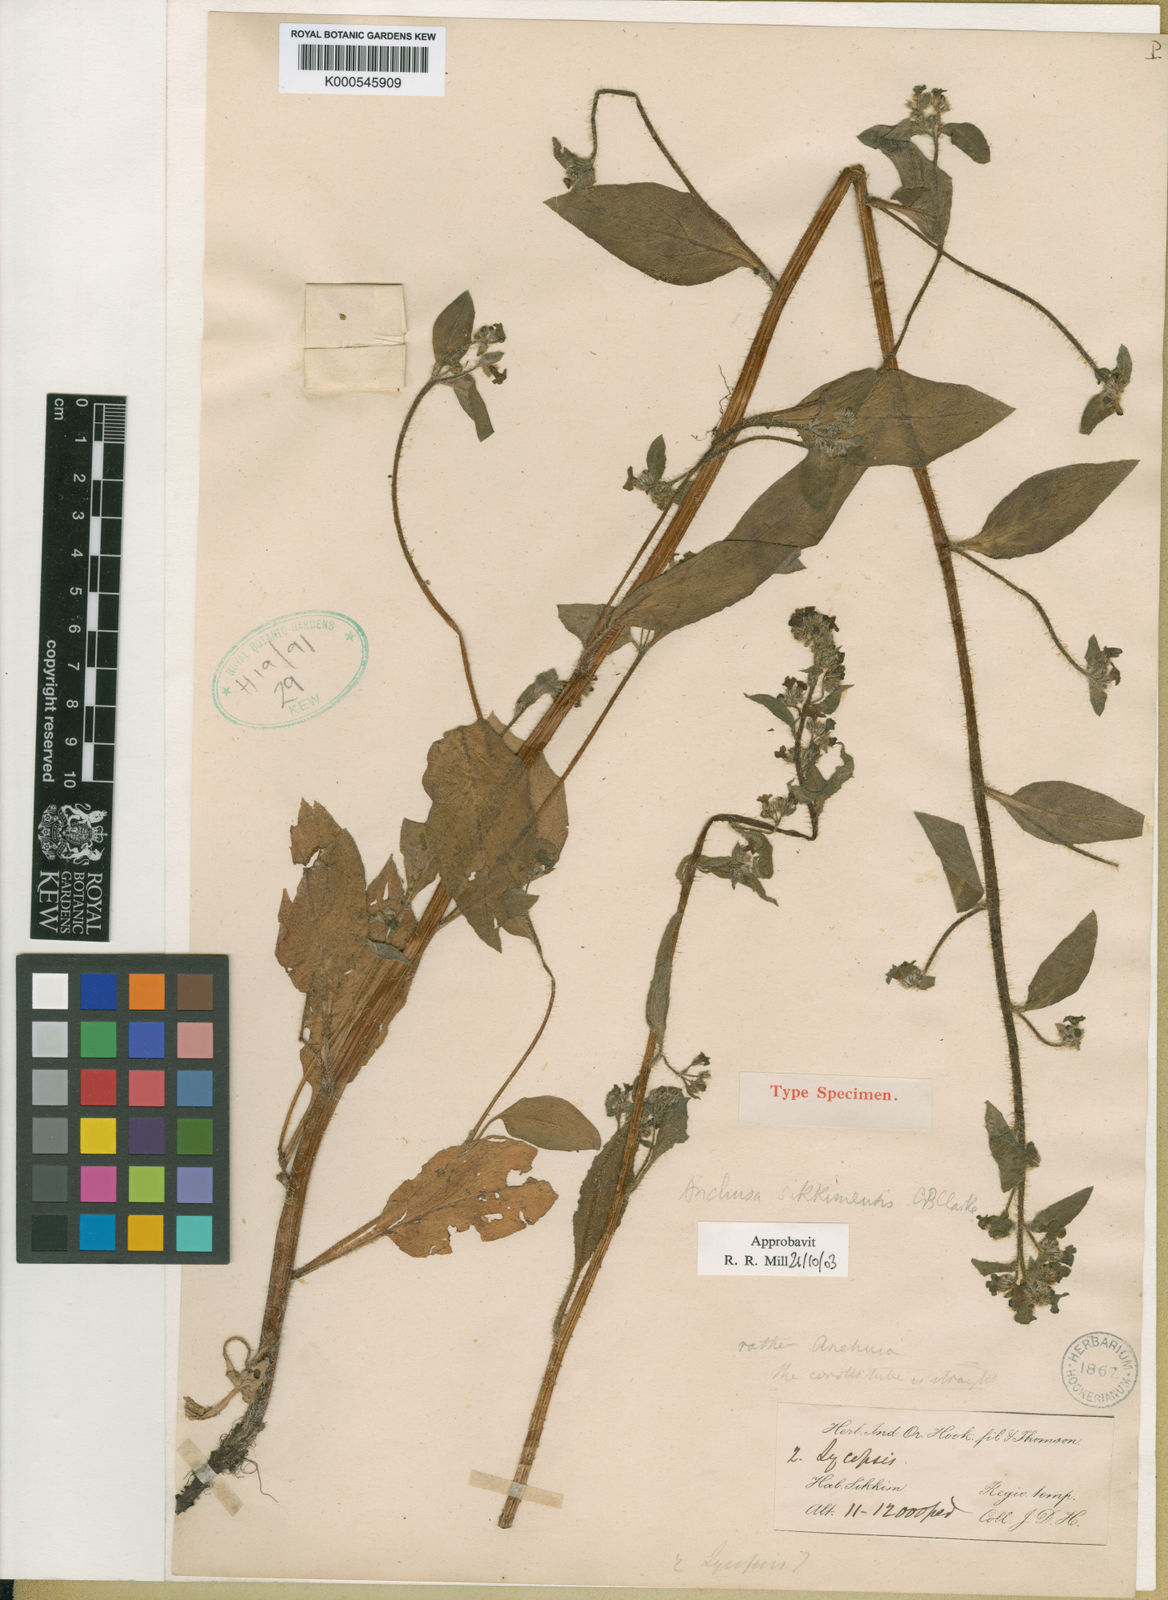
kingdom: Plantae
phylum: Tracheophyta
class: Magnoliopsida
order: Boraginales
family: Boraginaceae
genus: Microula
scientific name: Microula sikkimensis
